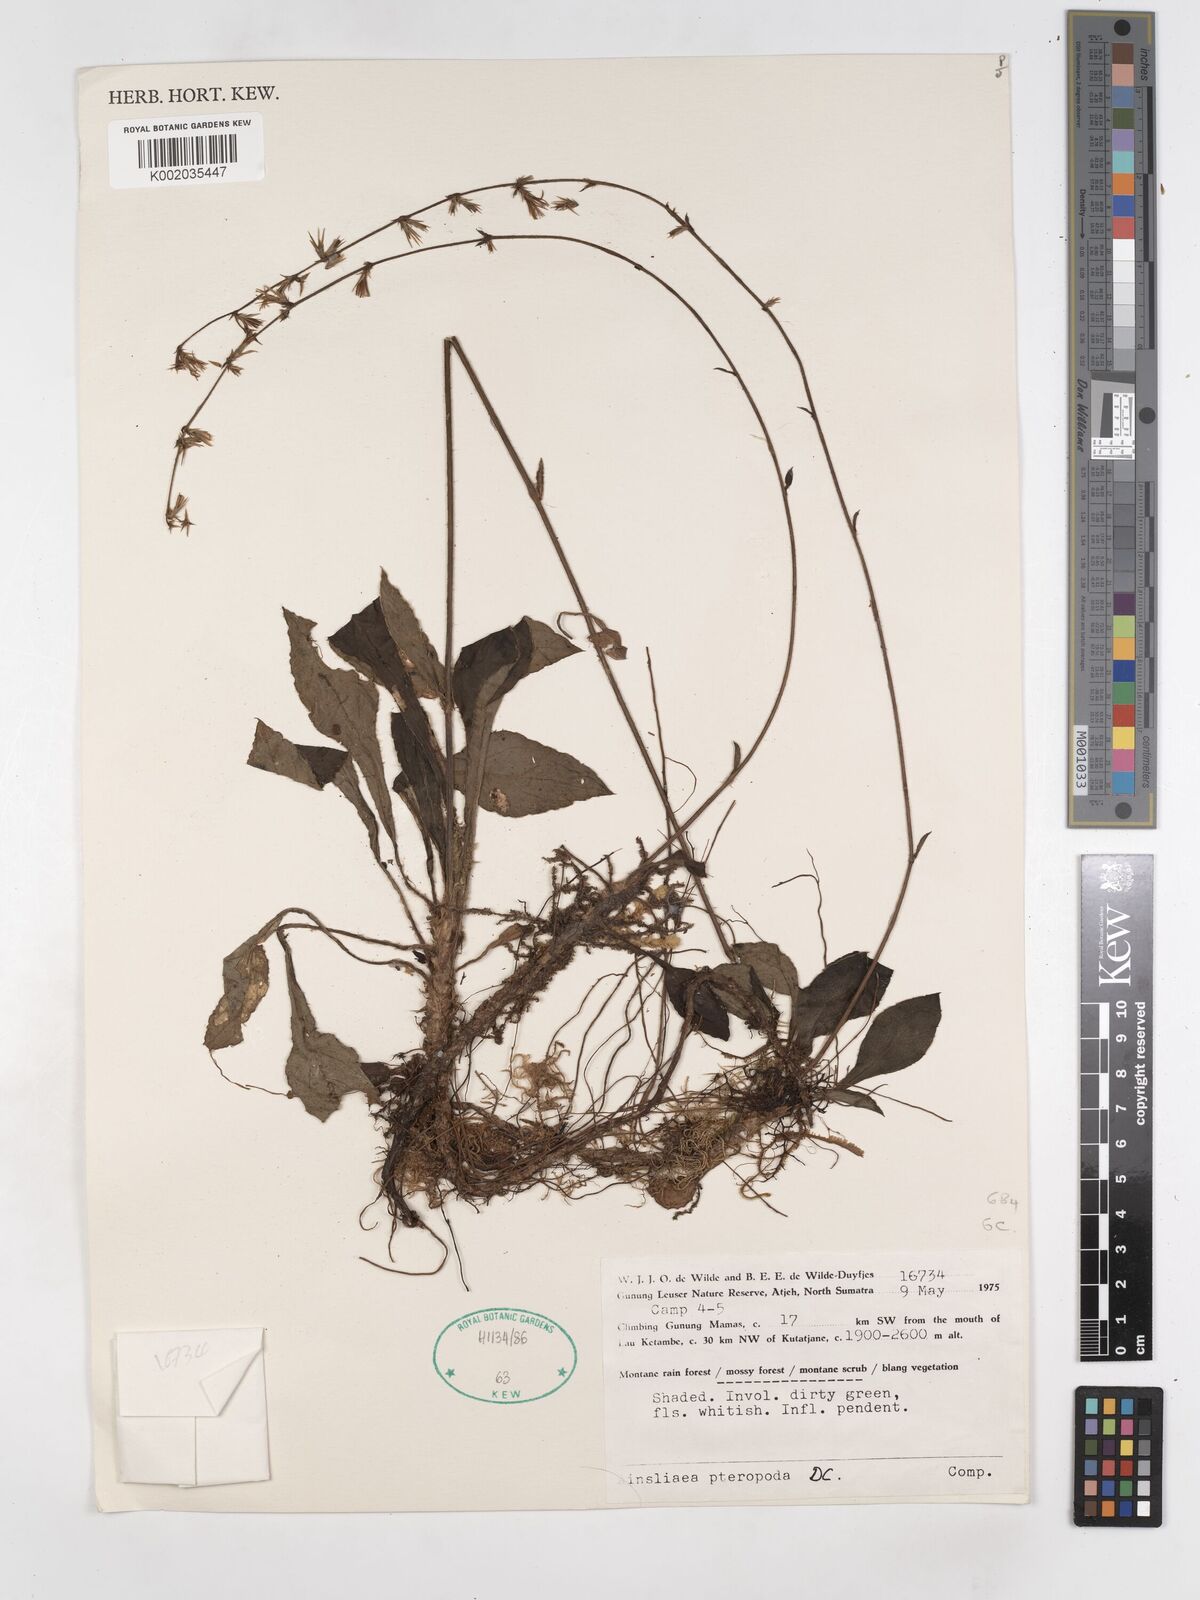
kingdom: Plantae
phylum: Tracheophyta
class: Magnoliopsida
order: Asterales
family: Asteraceae
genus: Ainsliaea
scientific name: Ainsliaea latifolia
